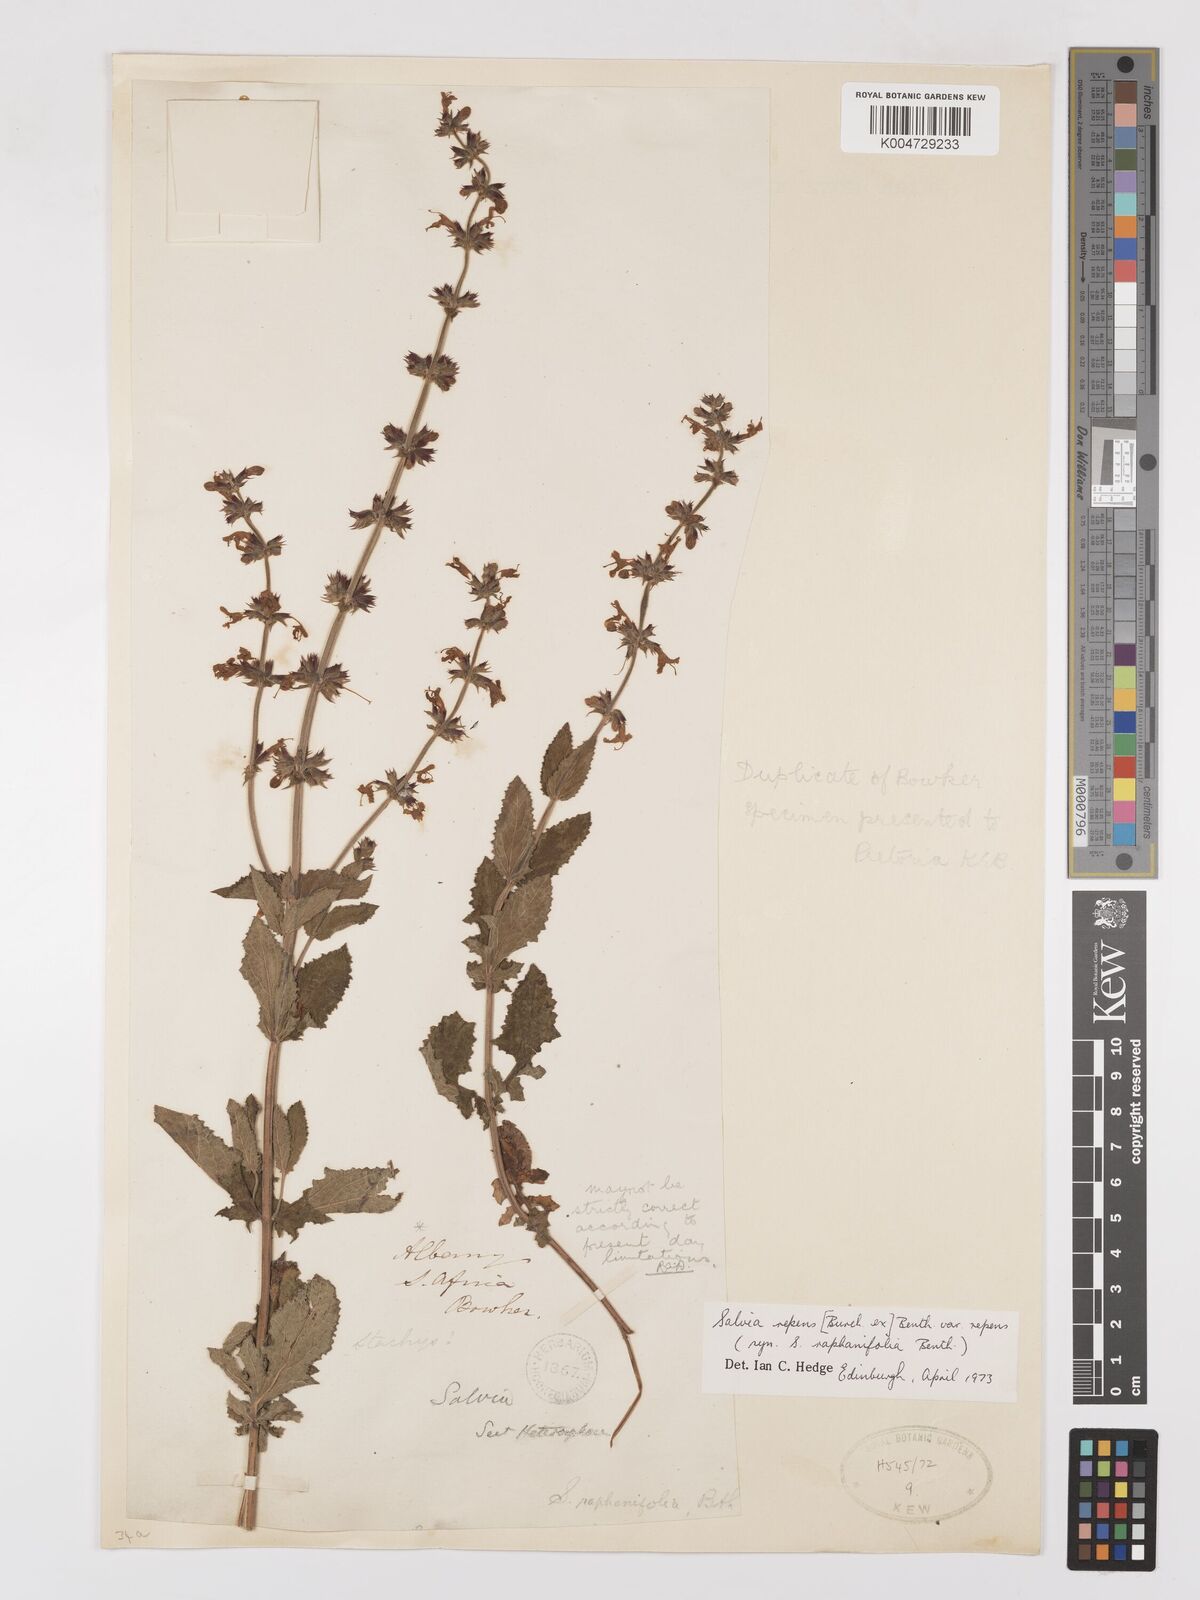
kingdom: Plantae
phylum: Tracheophyta
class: Magnoliopsida
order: Lamiales
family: Lamiaceae
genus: Salvia
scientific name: Salvia repens
